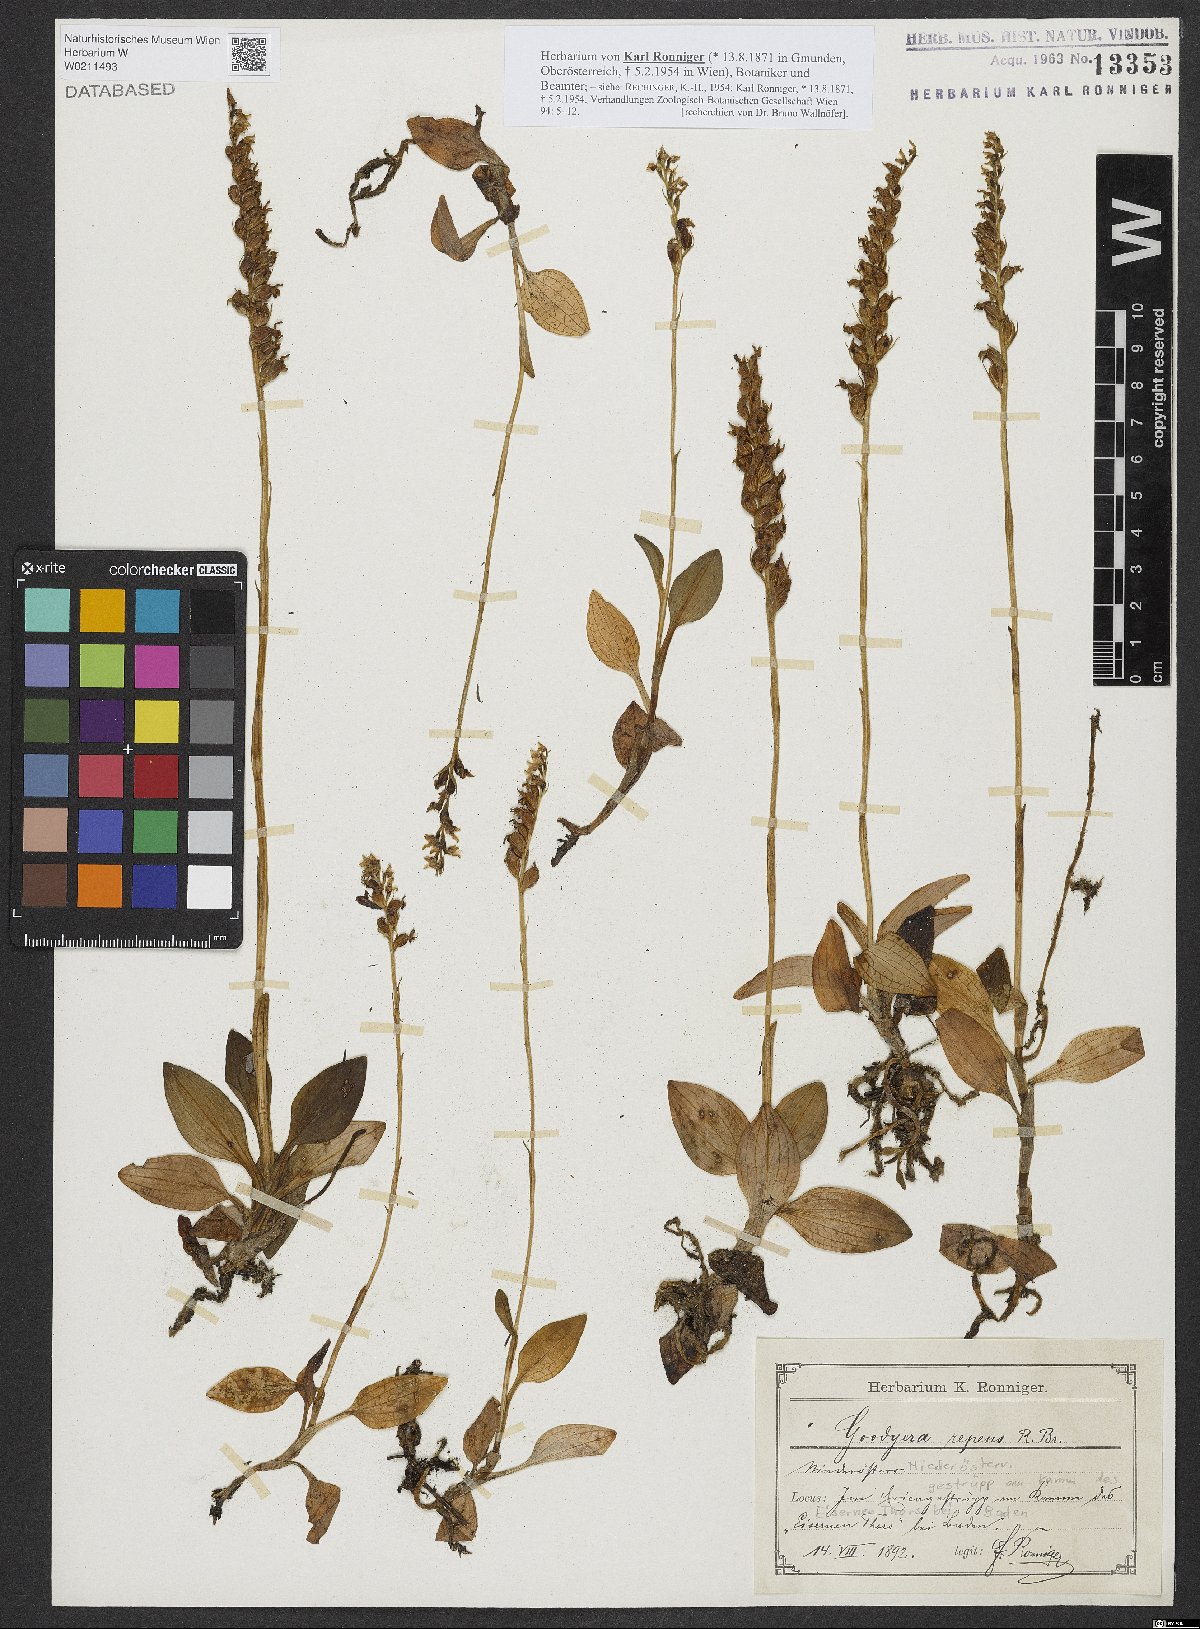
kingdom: Plantae
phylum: Tracheophyta
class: Liliopsida
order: Asparagales
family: Orchidaceae
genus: Goodyera
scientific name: Goodyera repens
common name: Creeping lady's-tresses
